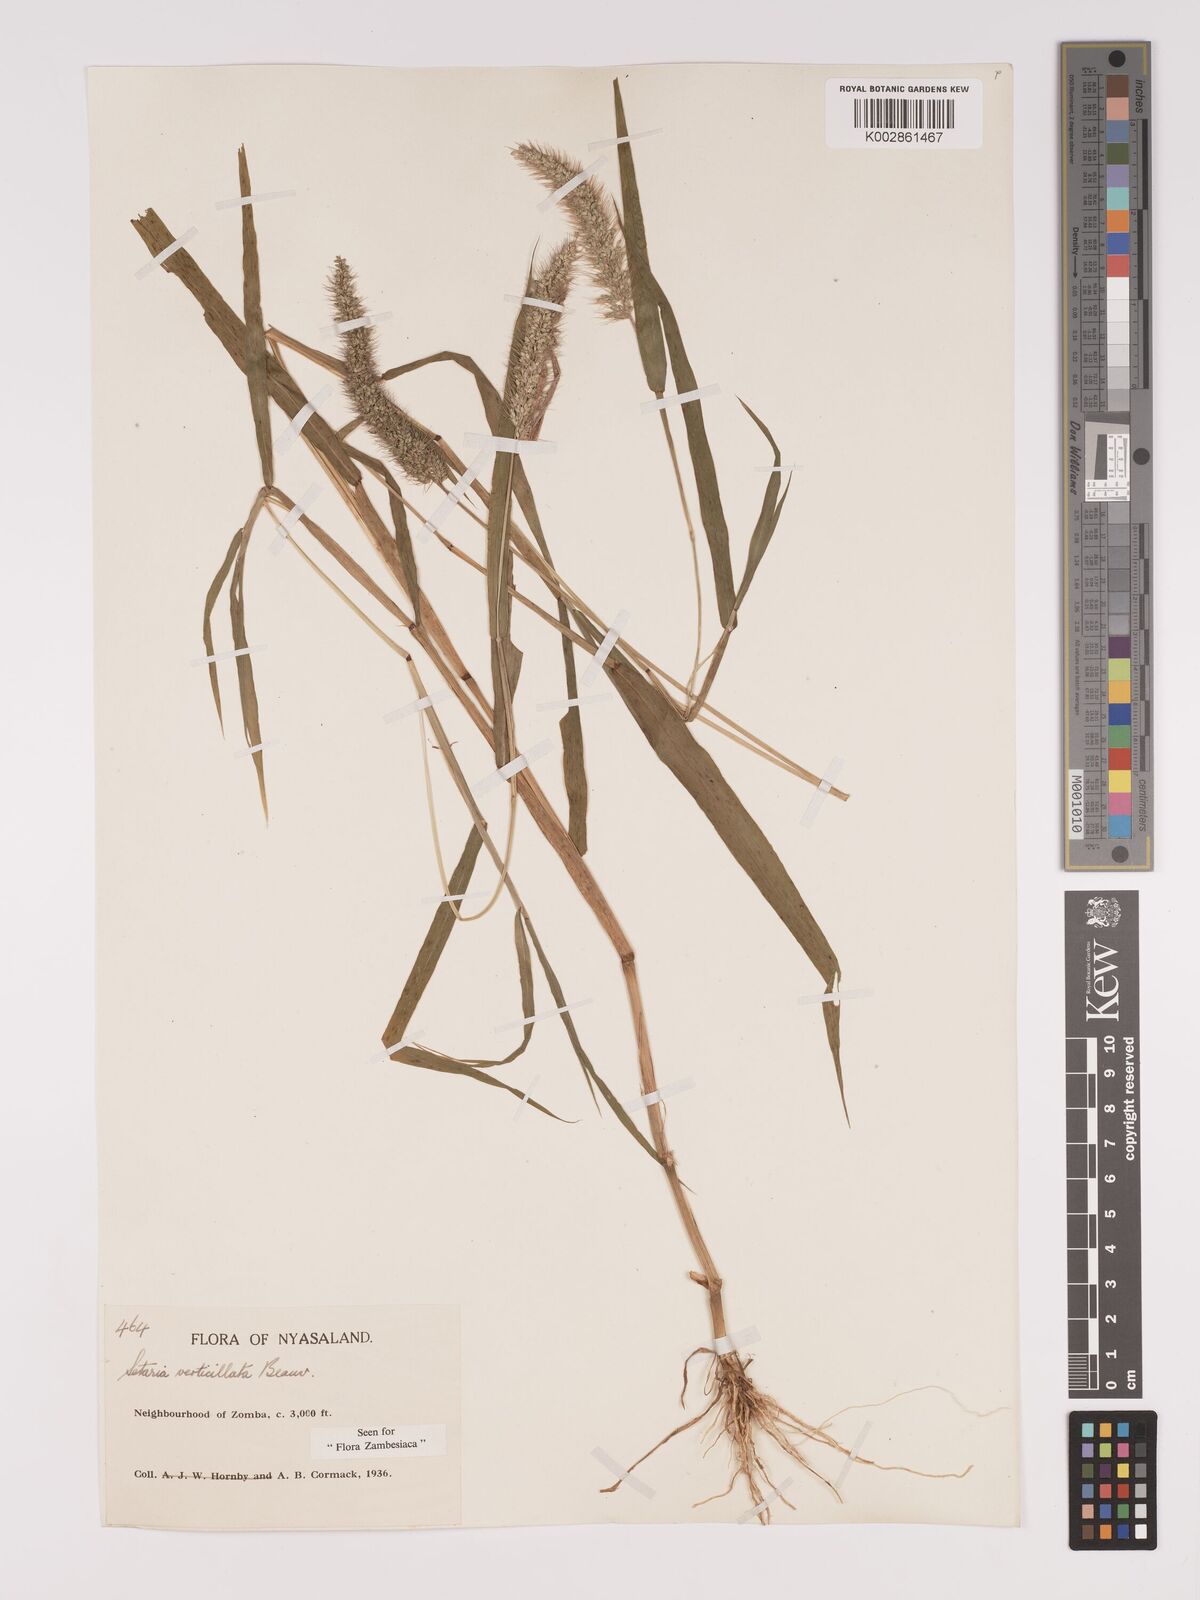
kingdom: Plantae
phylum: Tracheophyta
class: Liliopsida
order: Poales
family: Poaceae
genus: Setaria
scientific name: Setaria verticillata
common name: Hooked bristlegrass
